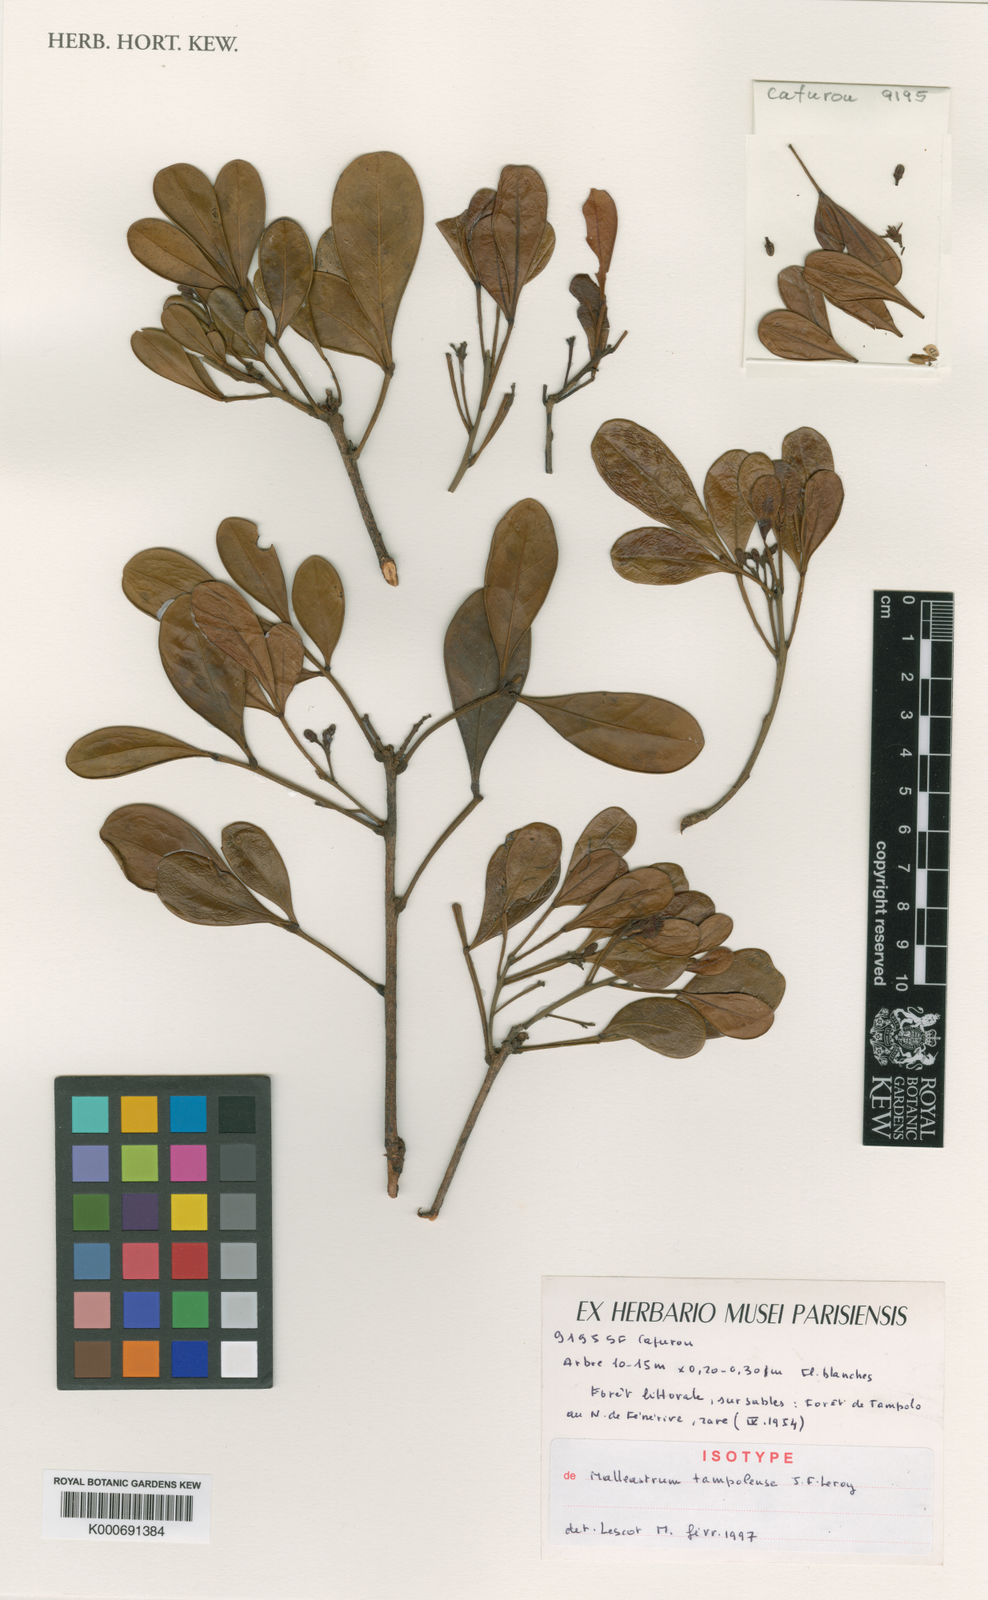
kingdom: Plantae
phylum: Tracheophyta
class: Magnoliopsida
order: Sapindales
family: Meliaceae
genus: Malleastrum
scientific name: Malleastrum tampolense
